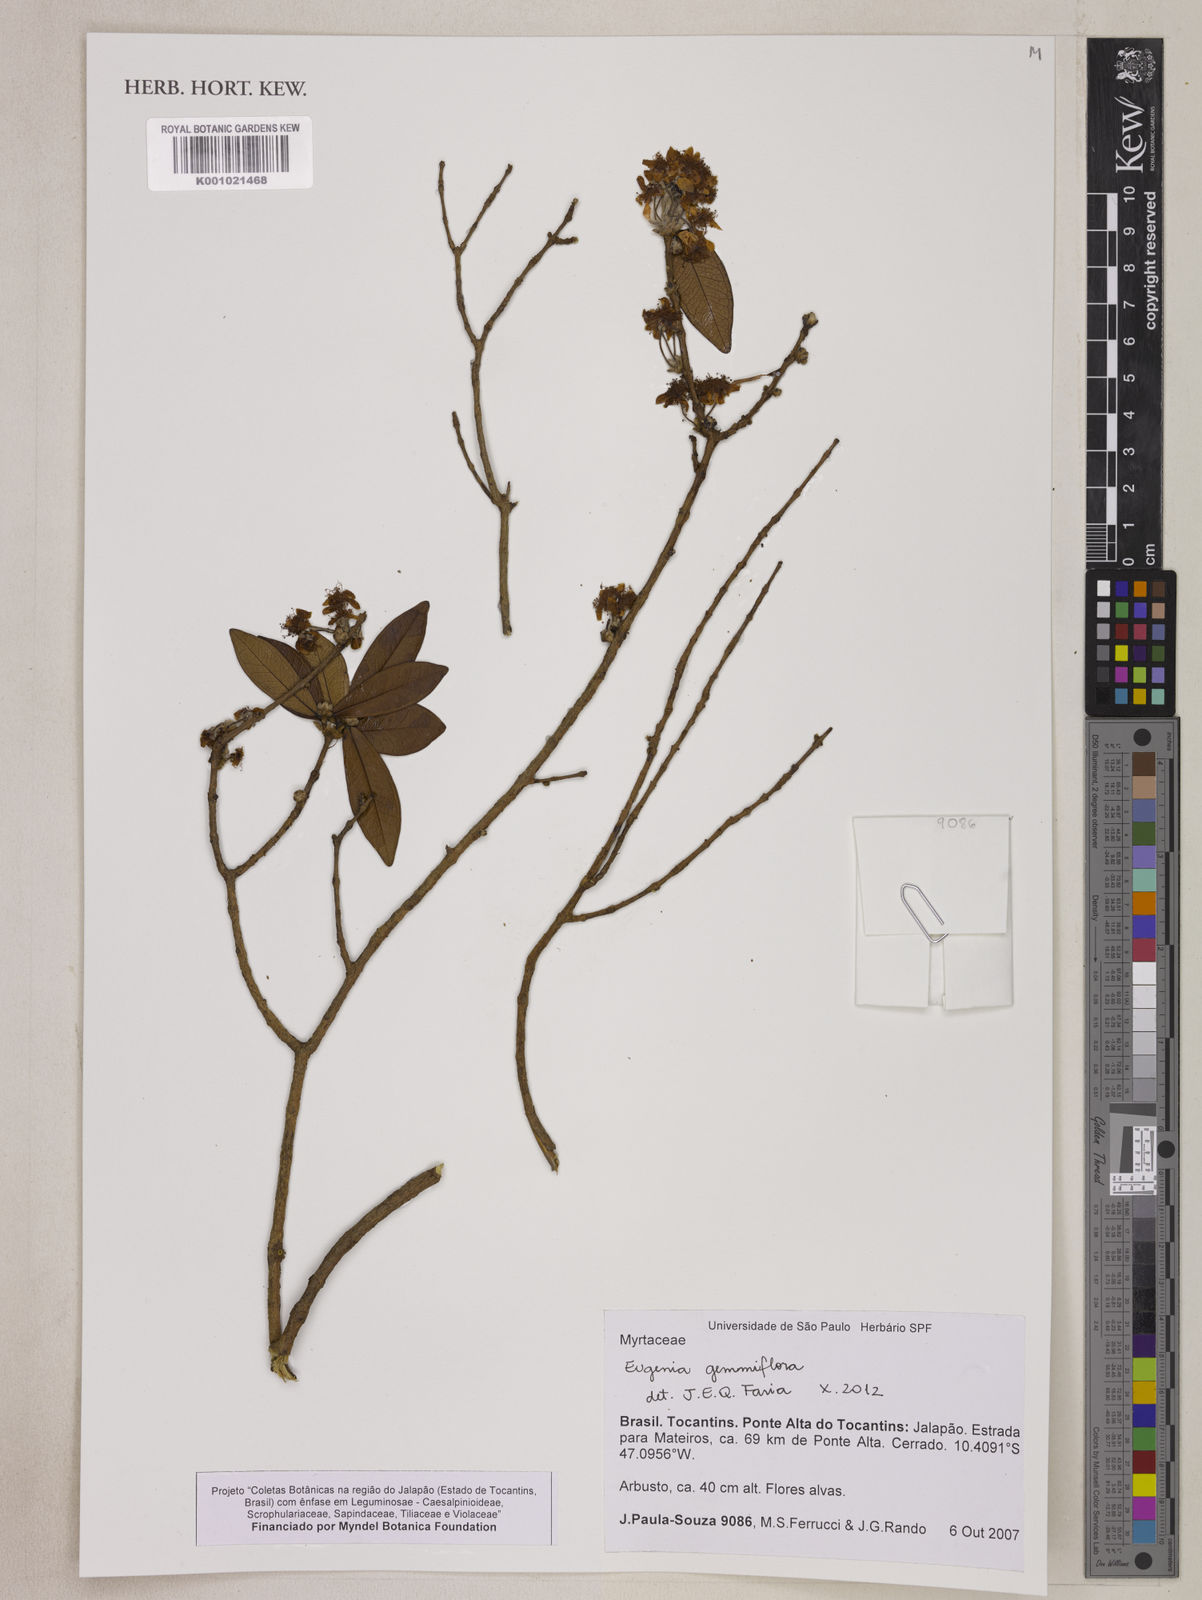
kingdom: Plantae
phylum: Tracheophyta
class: Magnoliopsida
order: Myrtales
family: Myrtaceae
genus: Eugenia
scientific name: Eugenia gemmiflora
